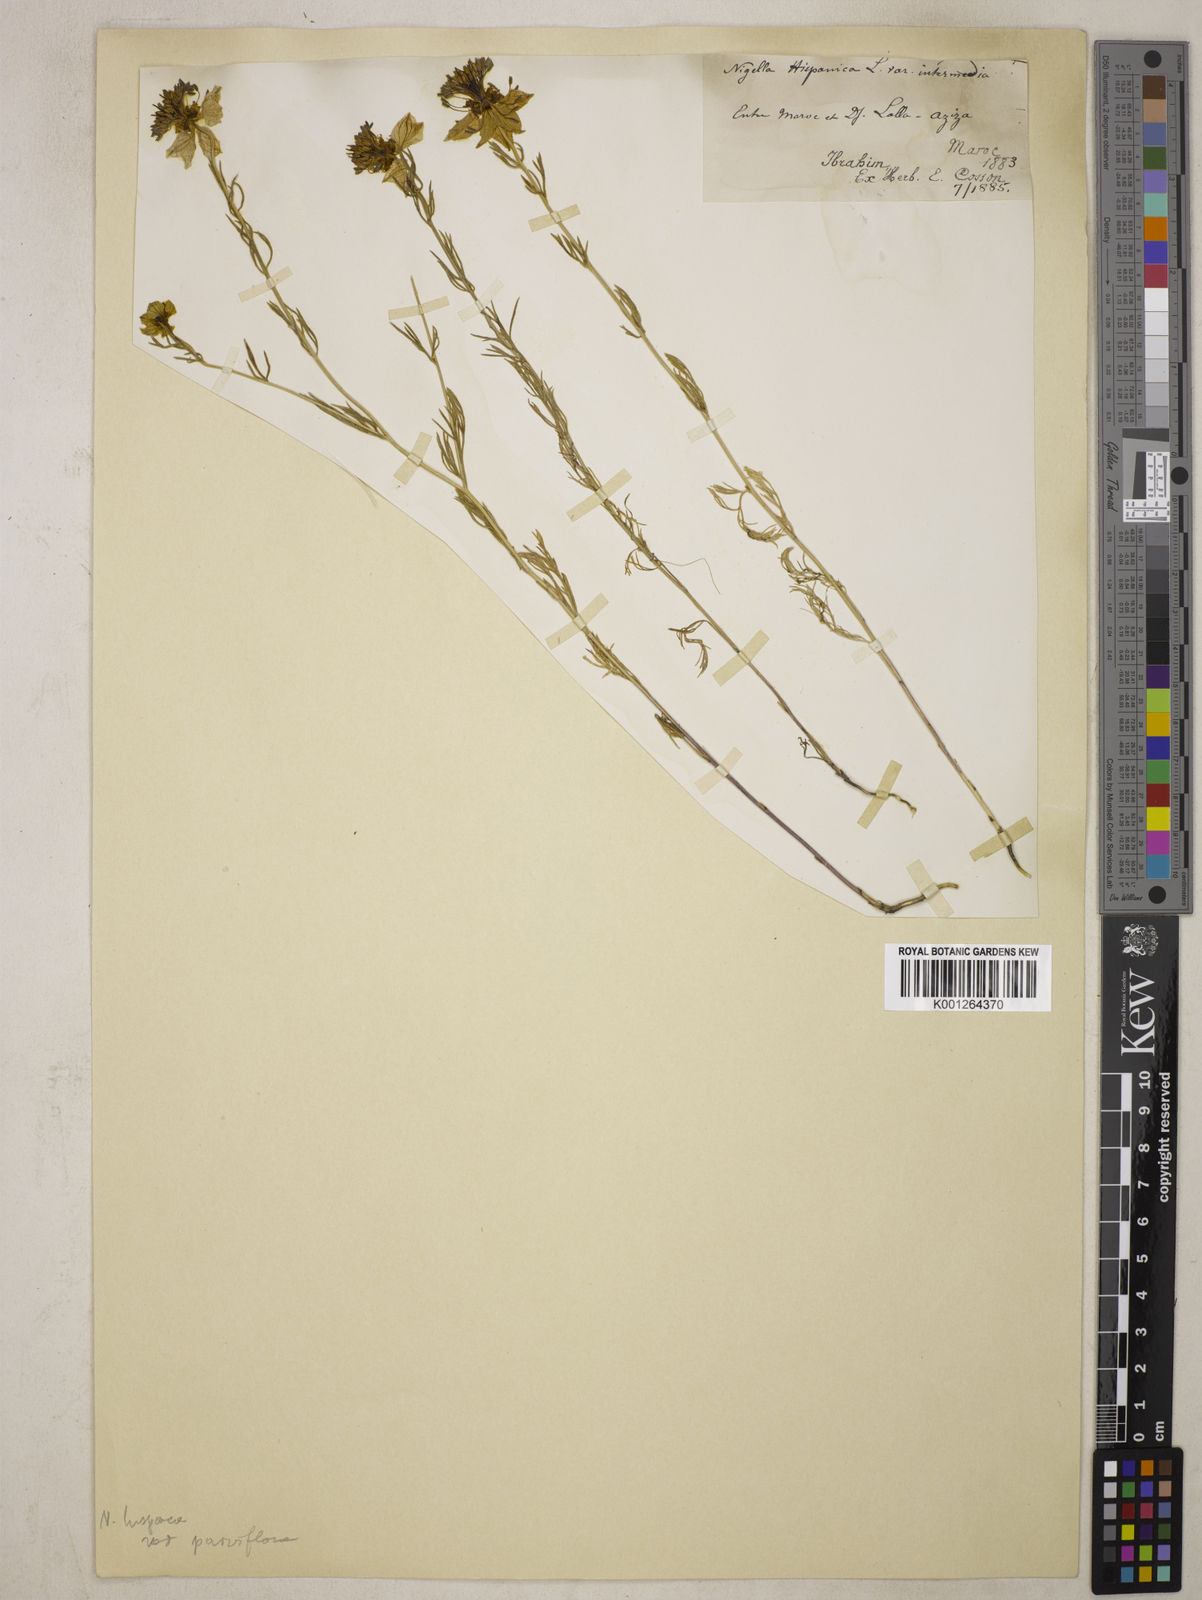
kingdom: Plantae
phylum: Tracheophyta
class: Magnoliopsida
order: Ranunculales
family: Ranunculaceae
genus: Nigella
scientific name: Nigella hispanica
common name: Fennel-flower
